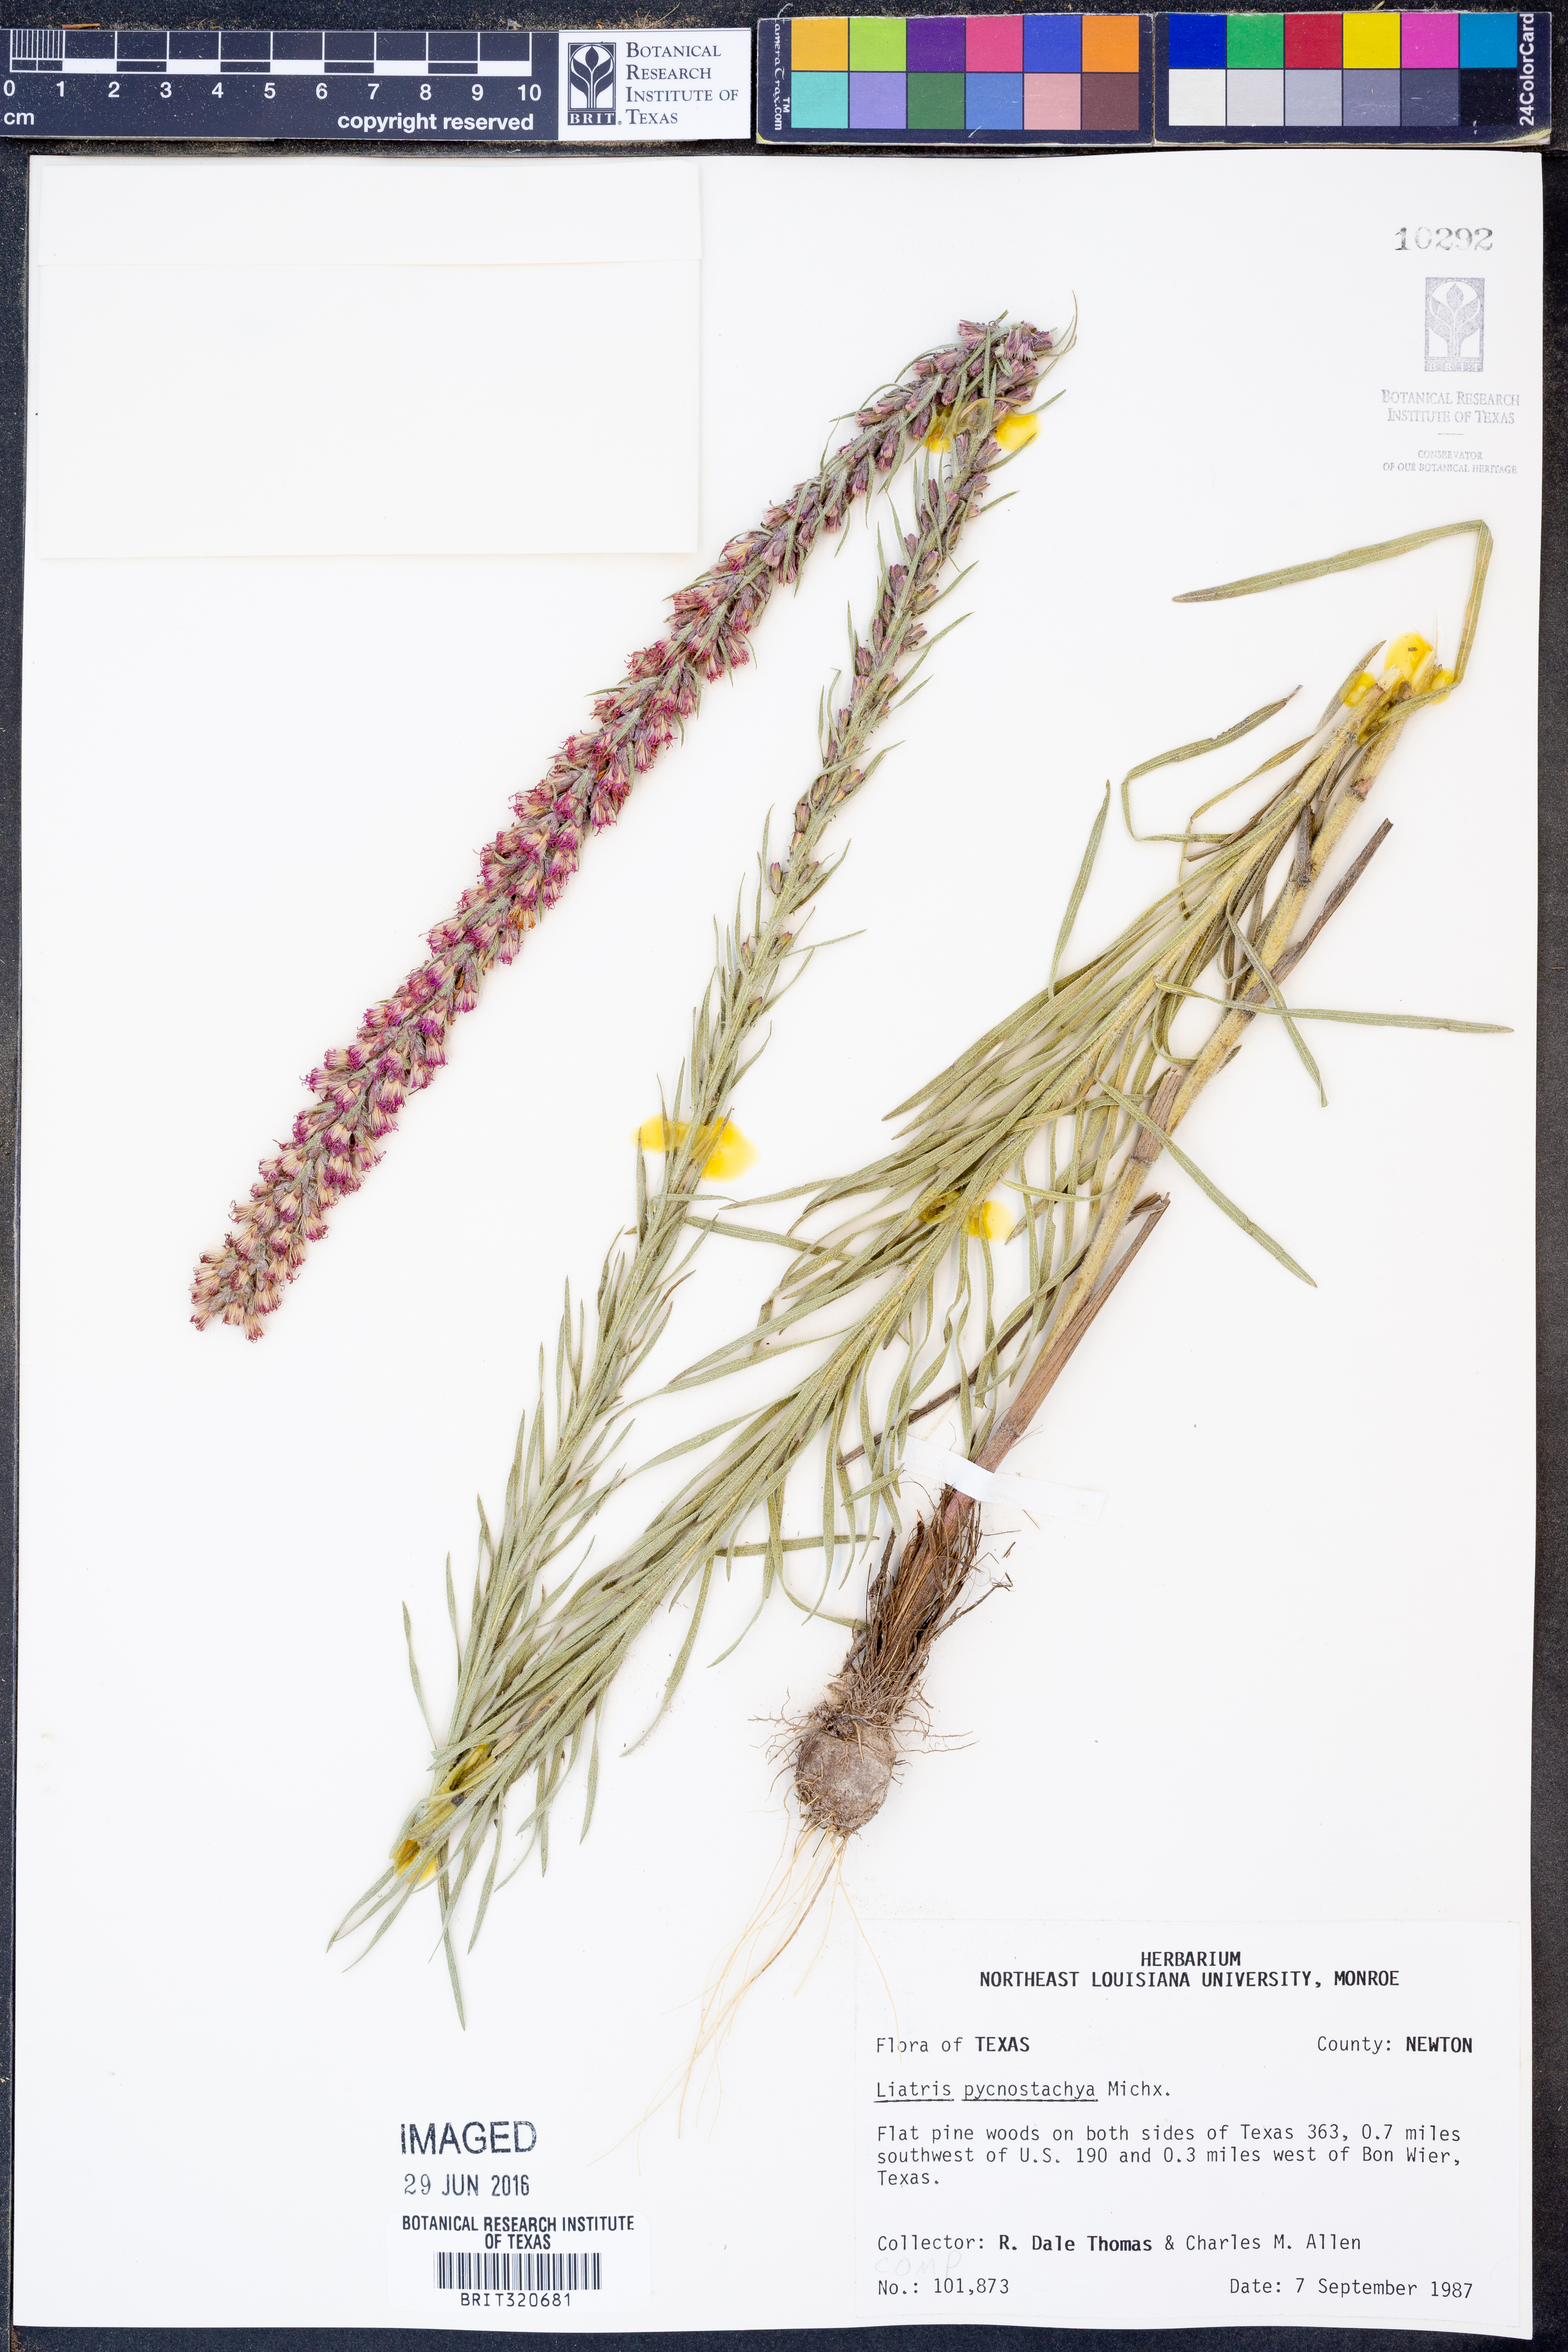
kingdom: Plantae
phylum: Tracheophyta
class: Magnoliopsida
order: Asterales
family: Asteraceae
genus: Liatris
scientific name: Liatris pycnostachya
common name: Cattail gayfeather
